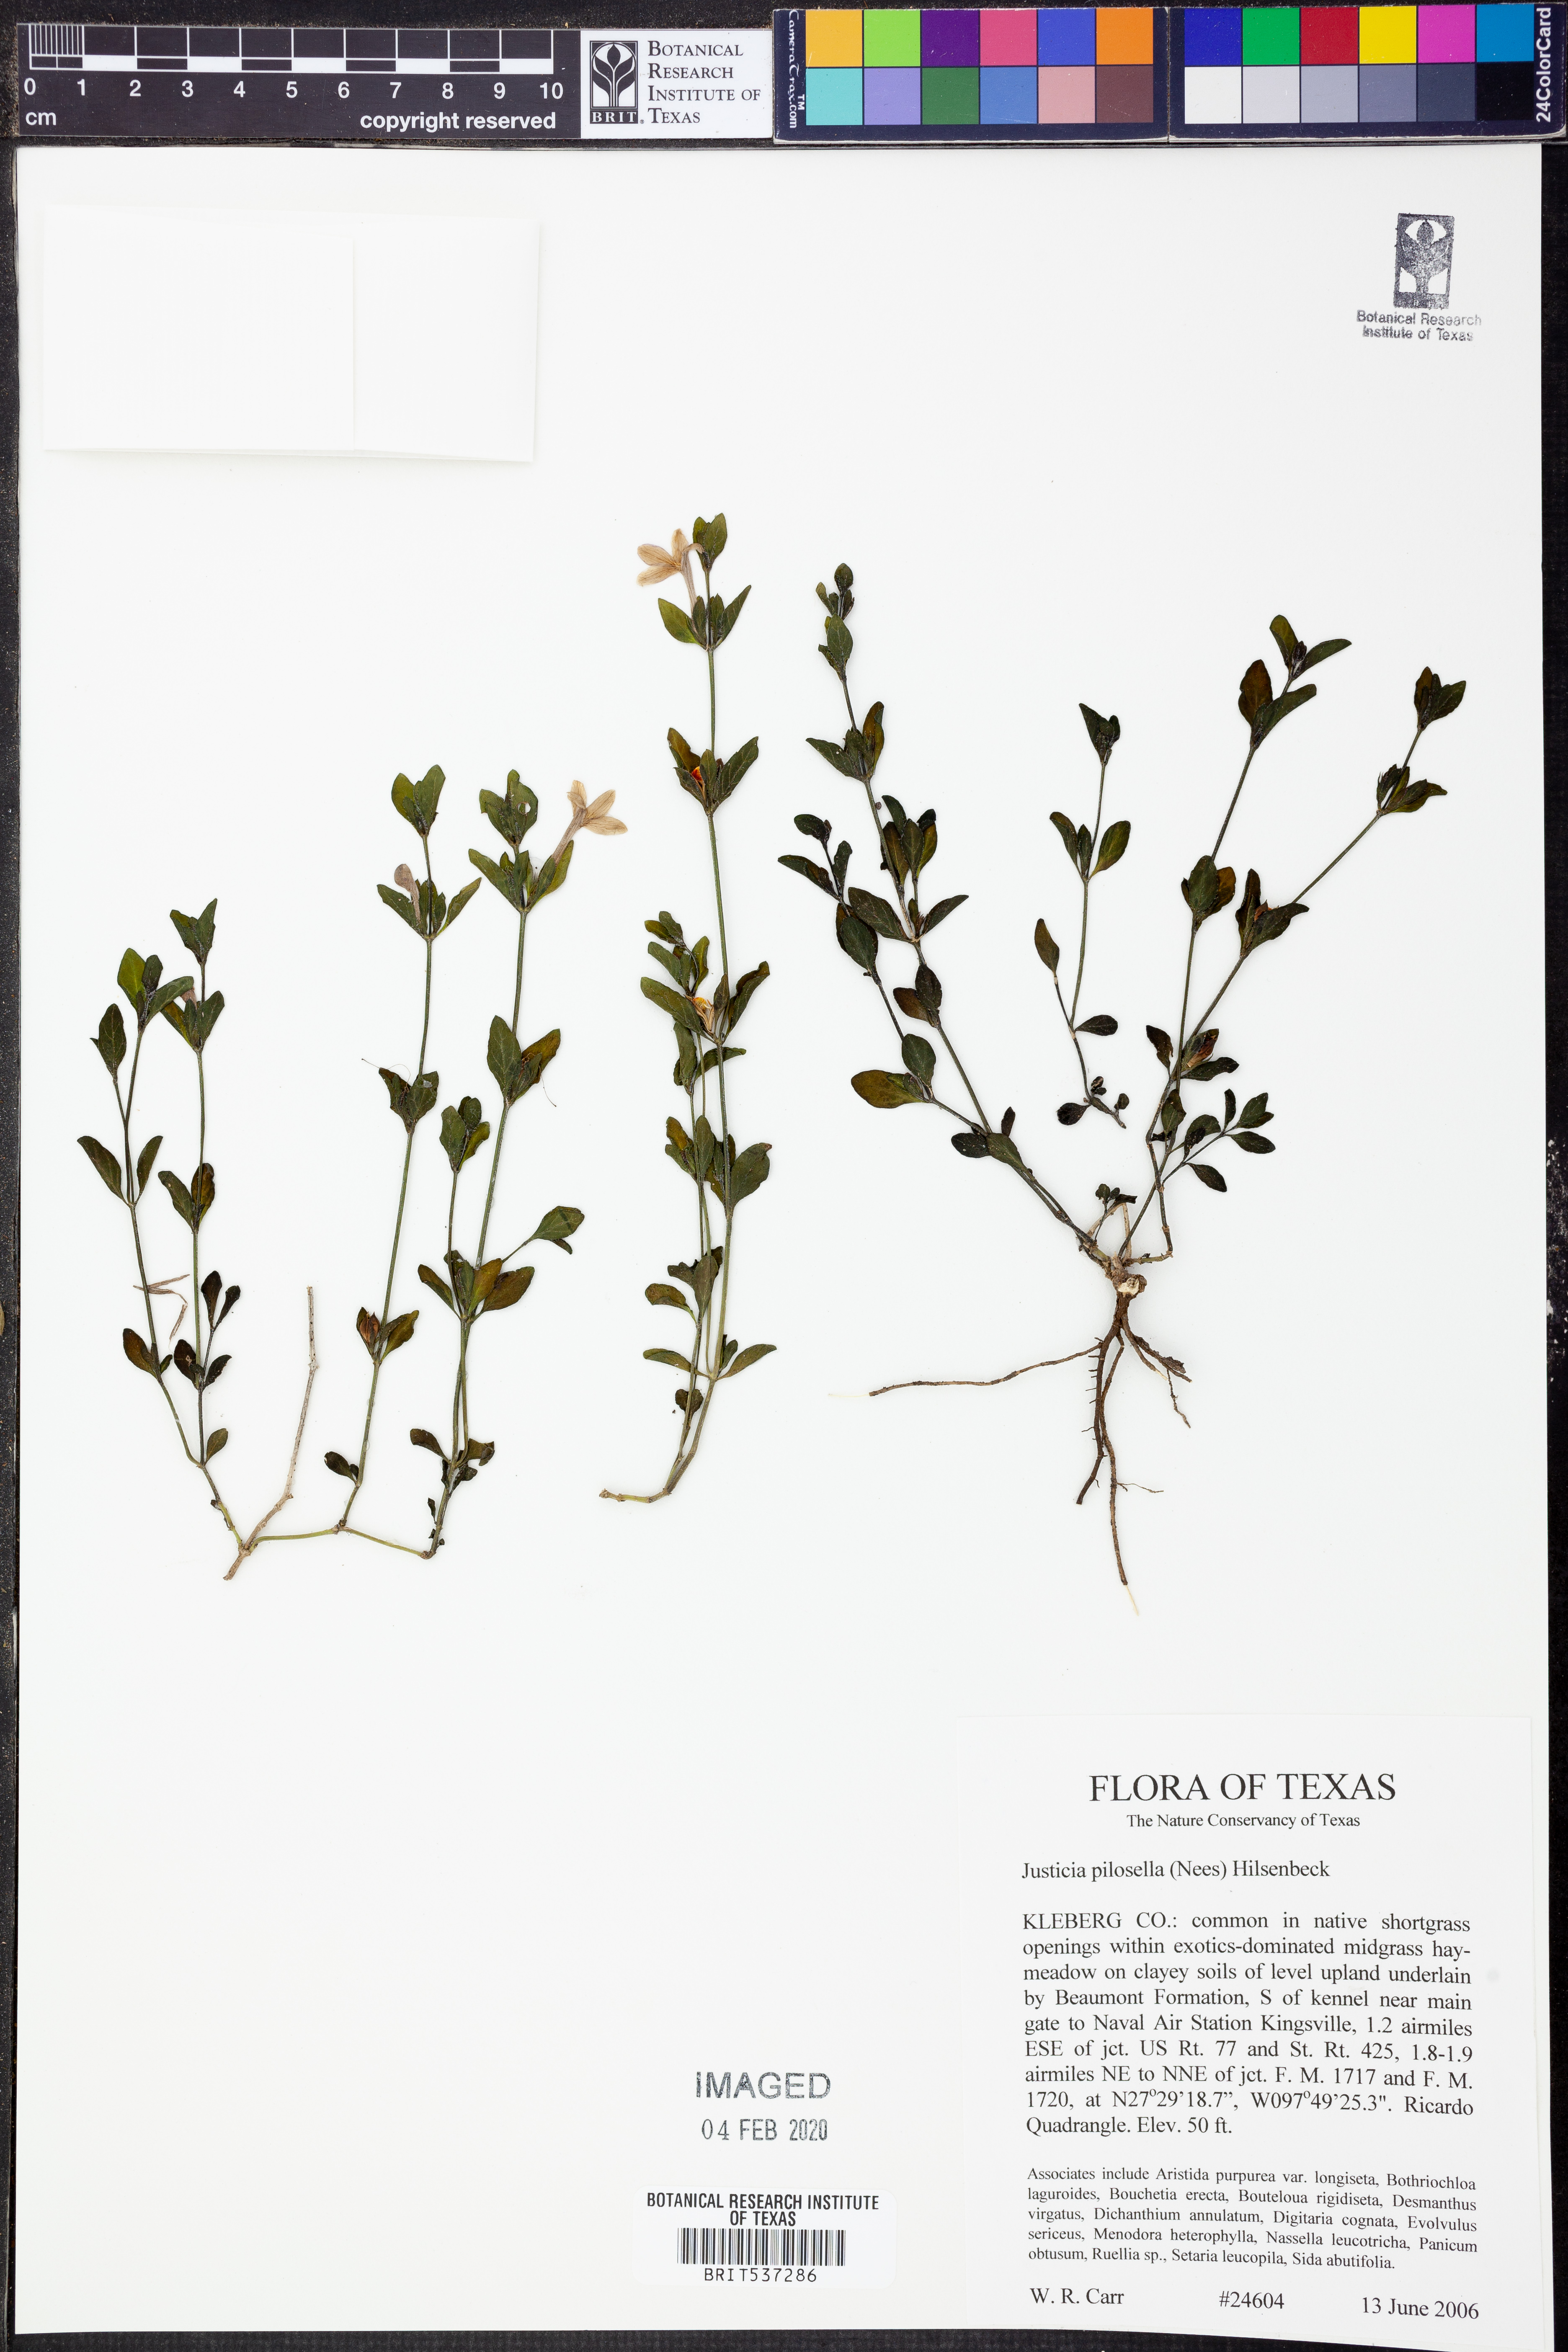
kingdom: Plantae
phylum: Tracheophyta
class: Magnoliopsida
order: Lamiales
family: Acanthaceae
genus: Justicia
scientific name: Justicia pilosella
